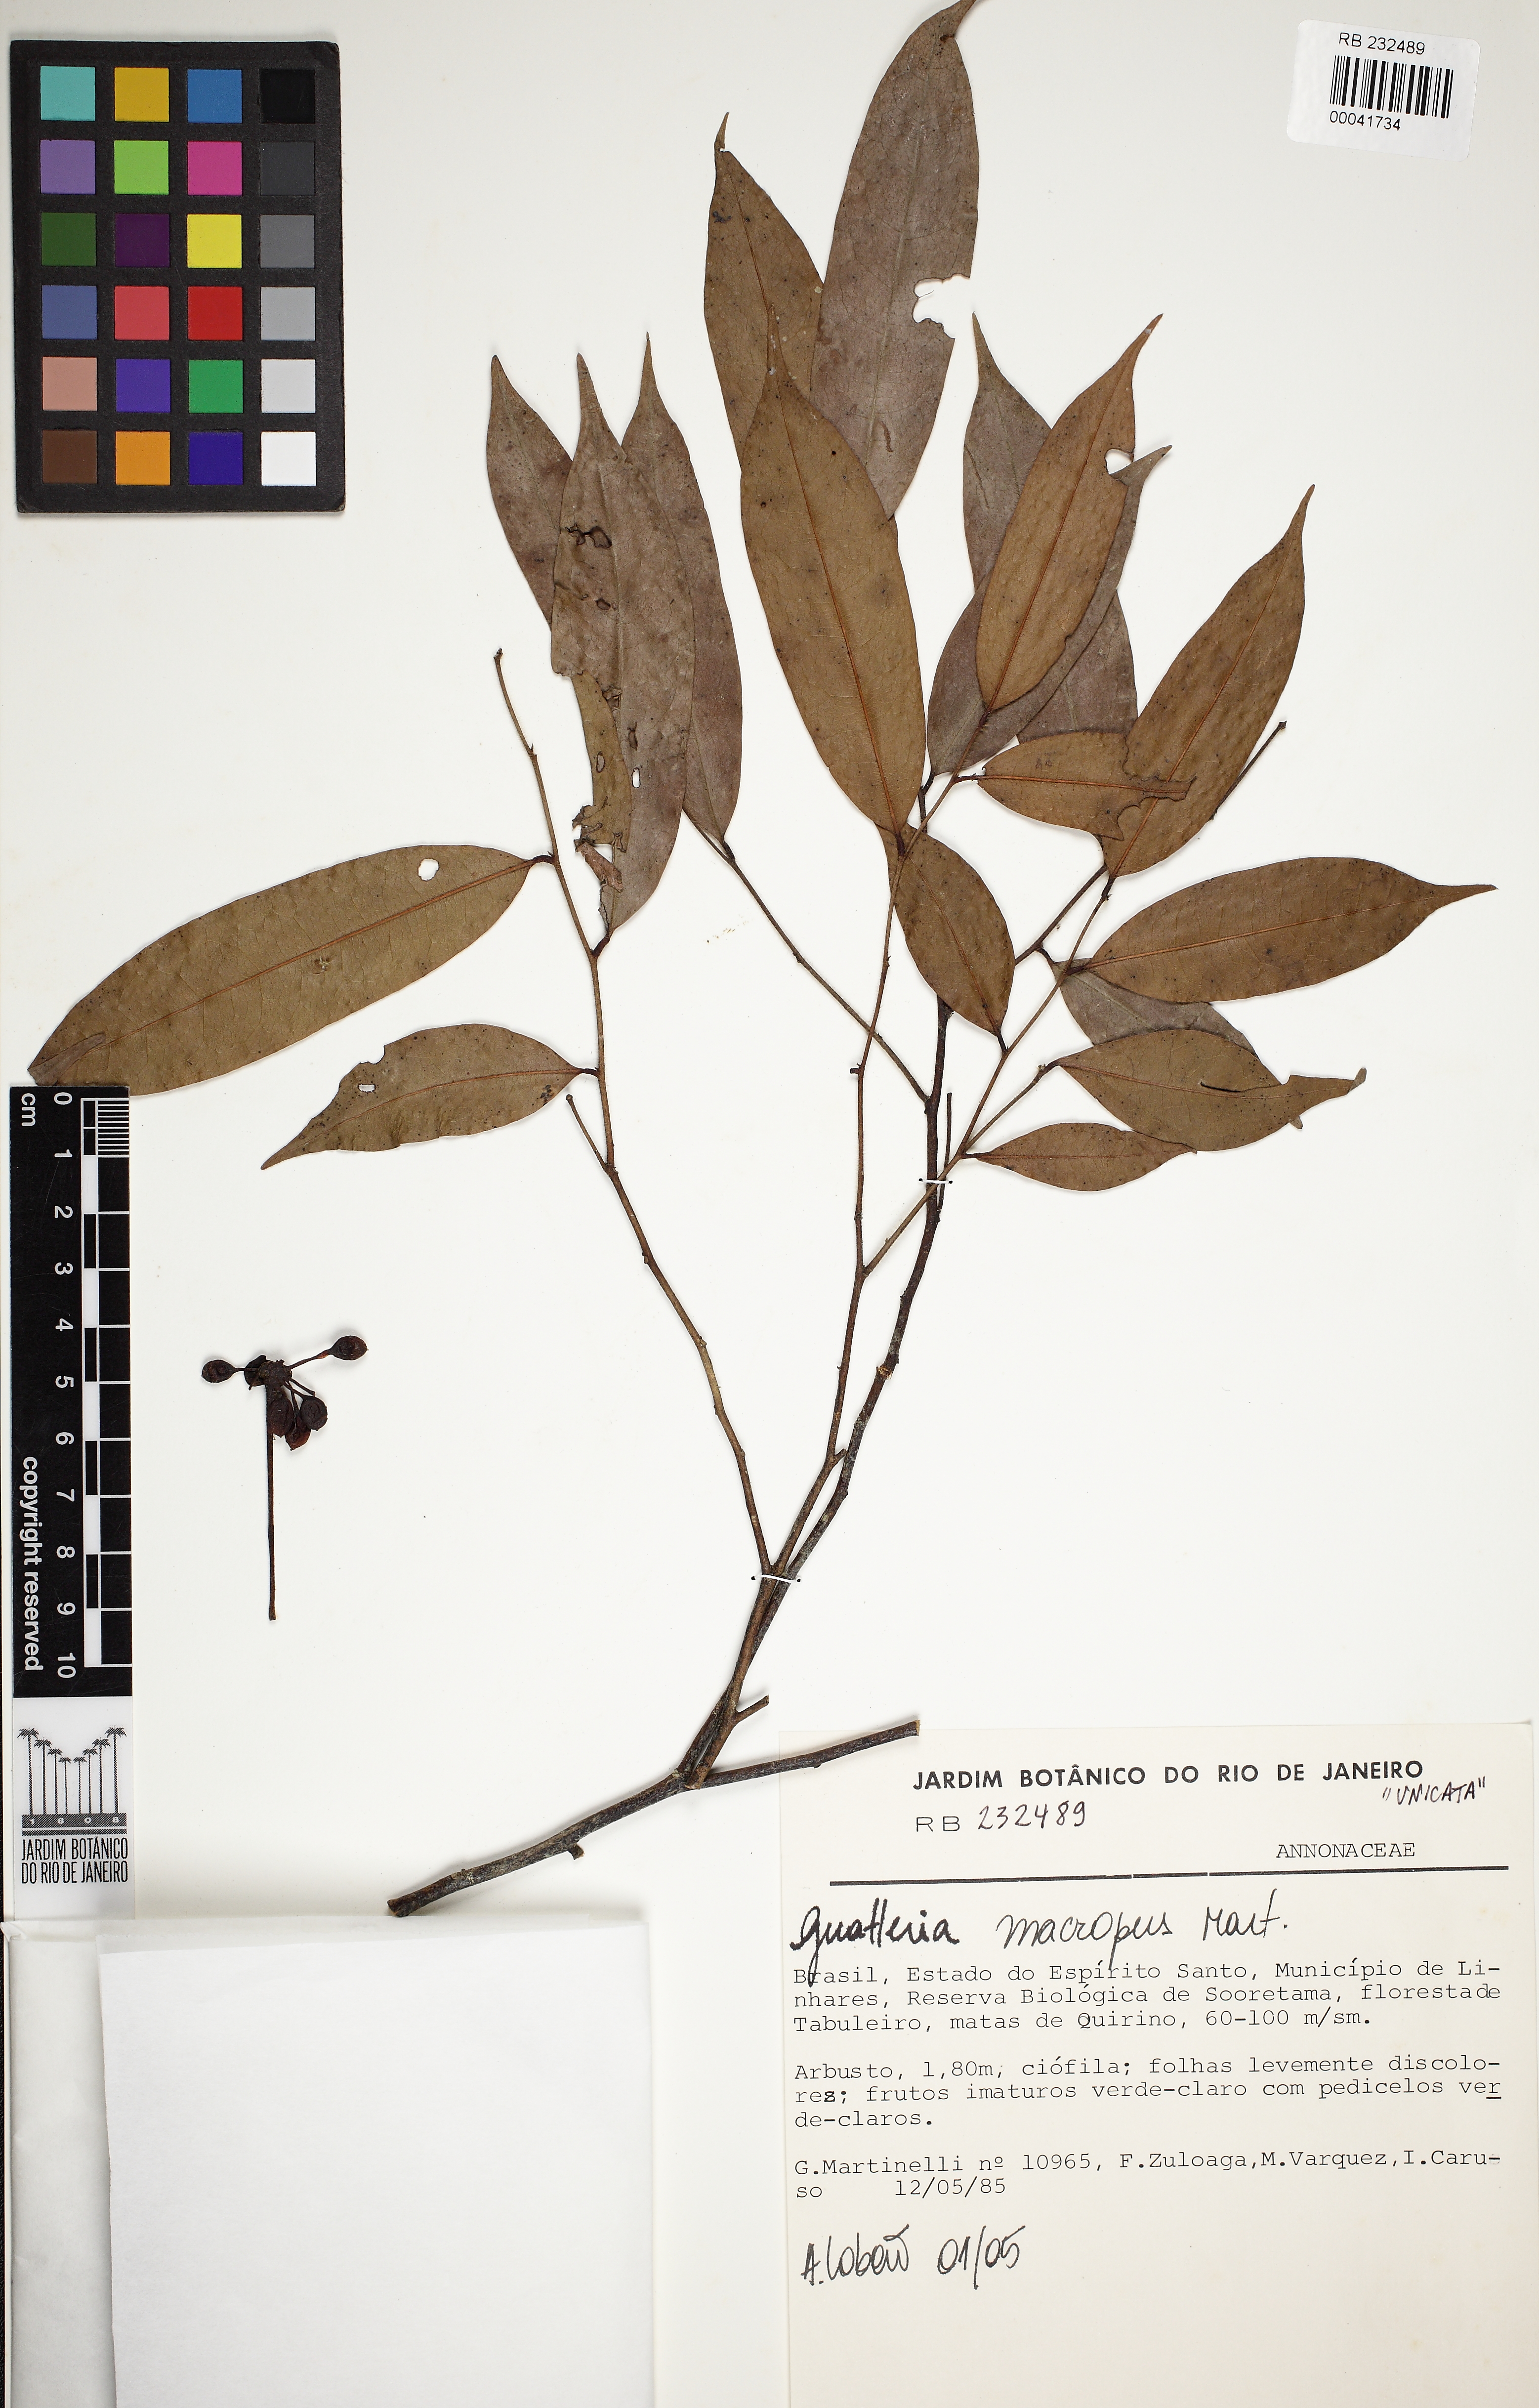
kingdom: Plantae
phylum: Tracheophyta
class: Magnoliopsida
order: Magnoliales
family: Annonaceae
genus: Guatteria
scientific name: Guatteria macropus
